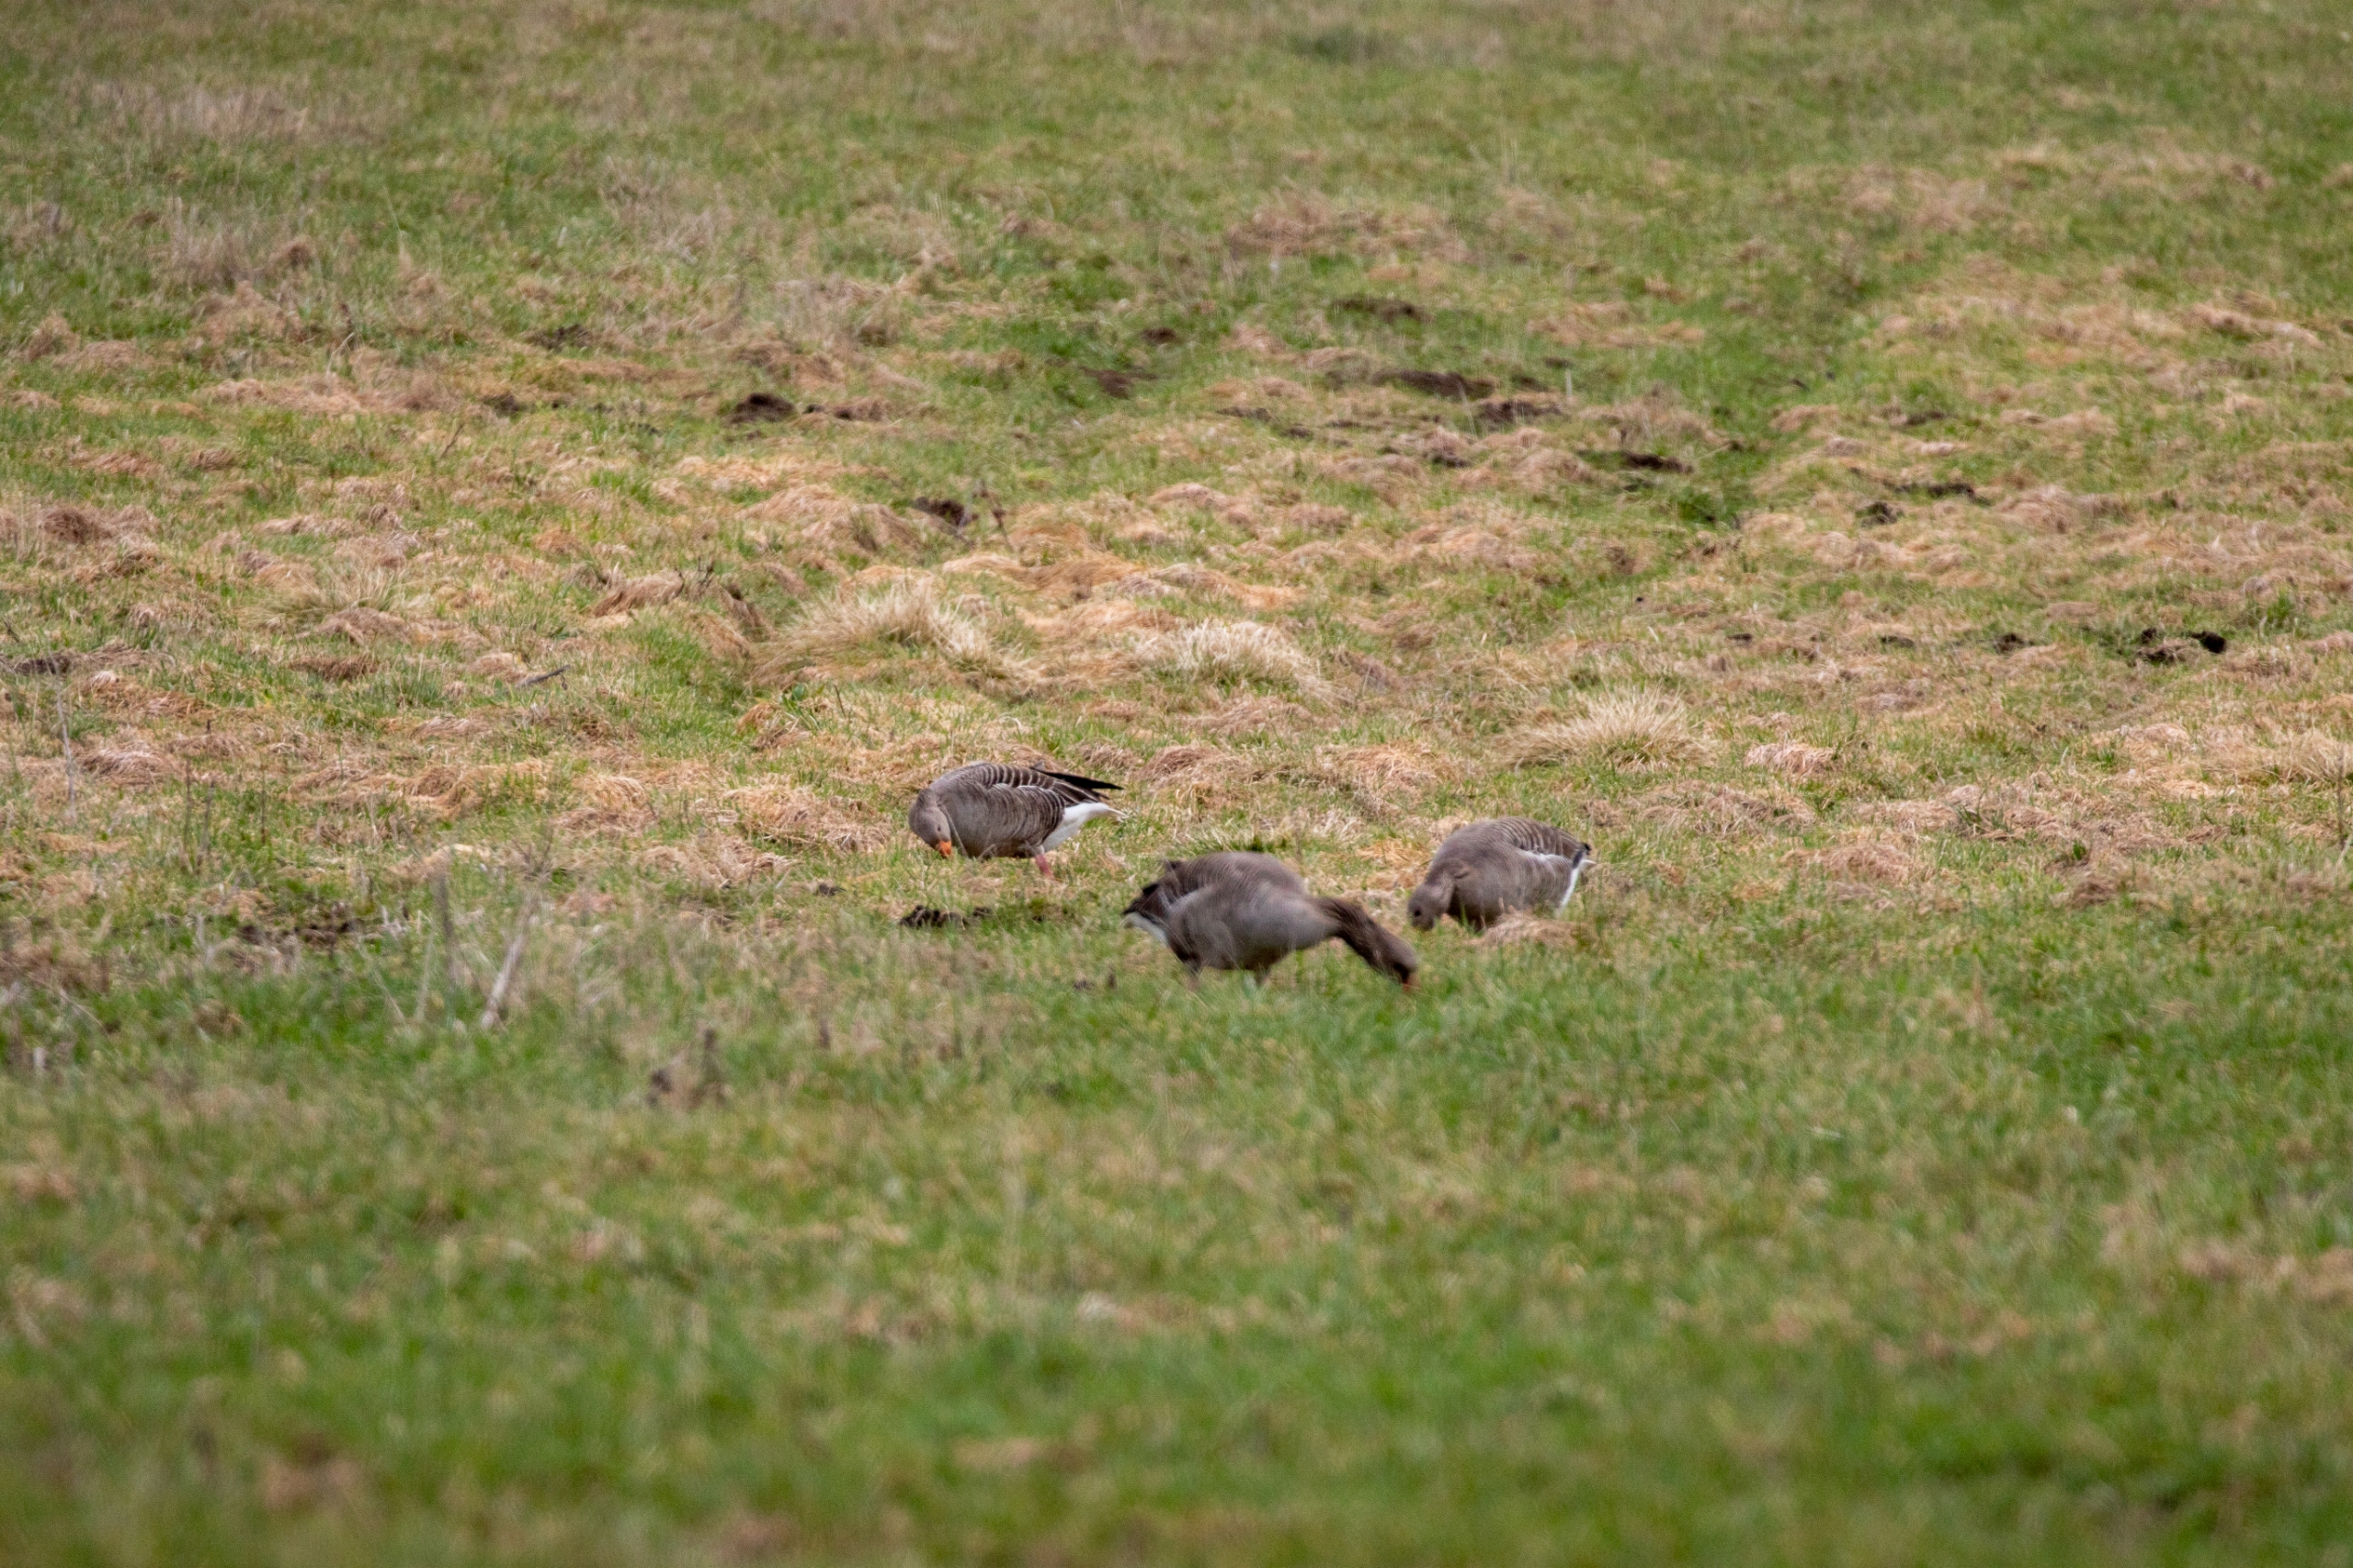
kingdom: Animalia
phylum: Chordata
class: Aves
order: Anseriformes
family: Anatidae
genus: Anser
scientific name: Anser anser
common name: Grågås
